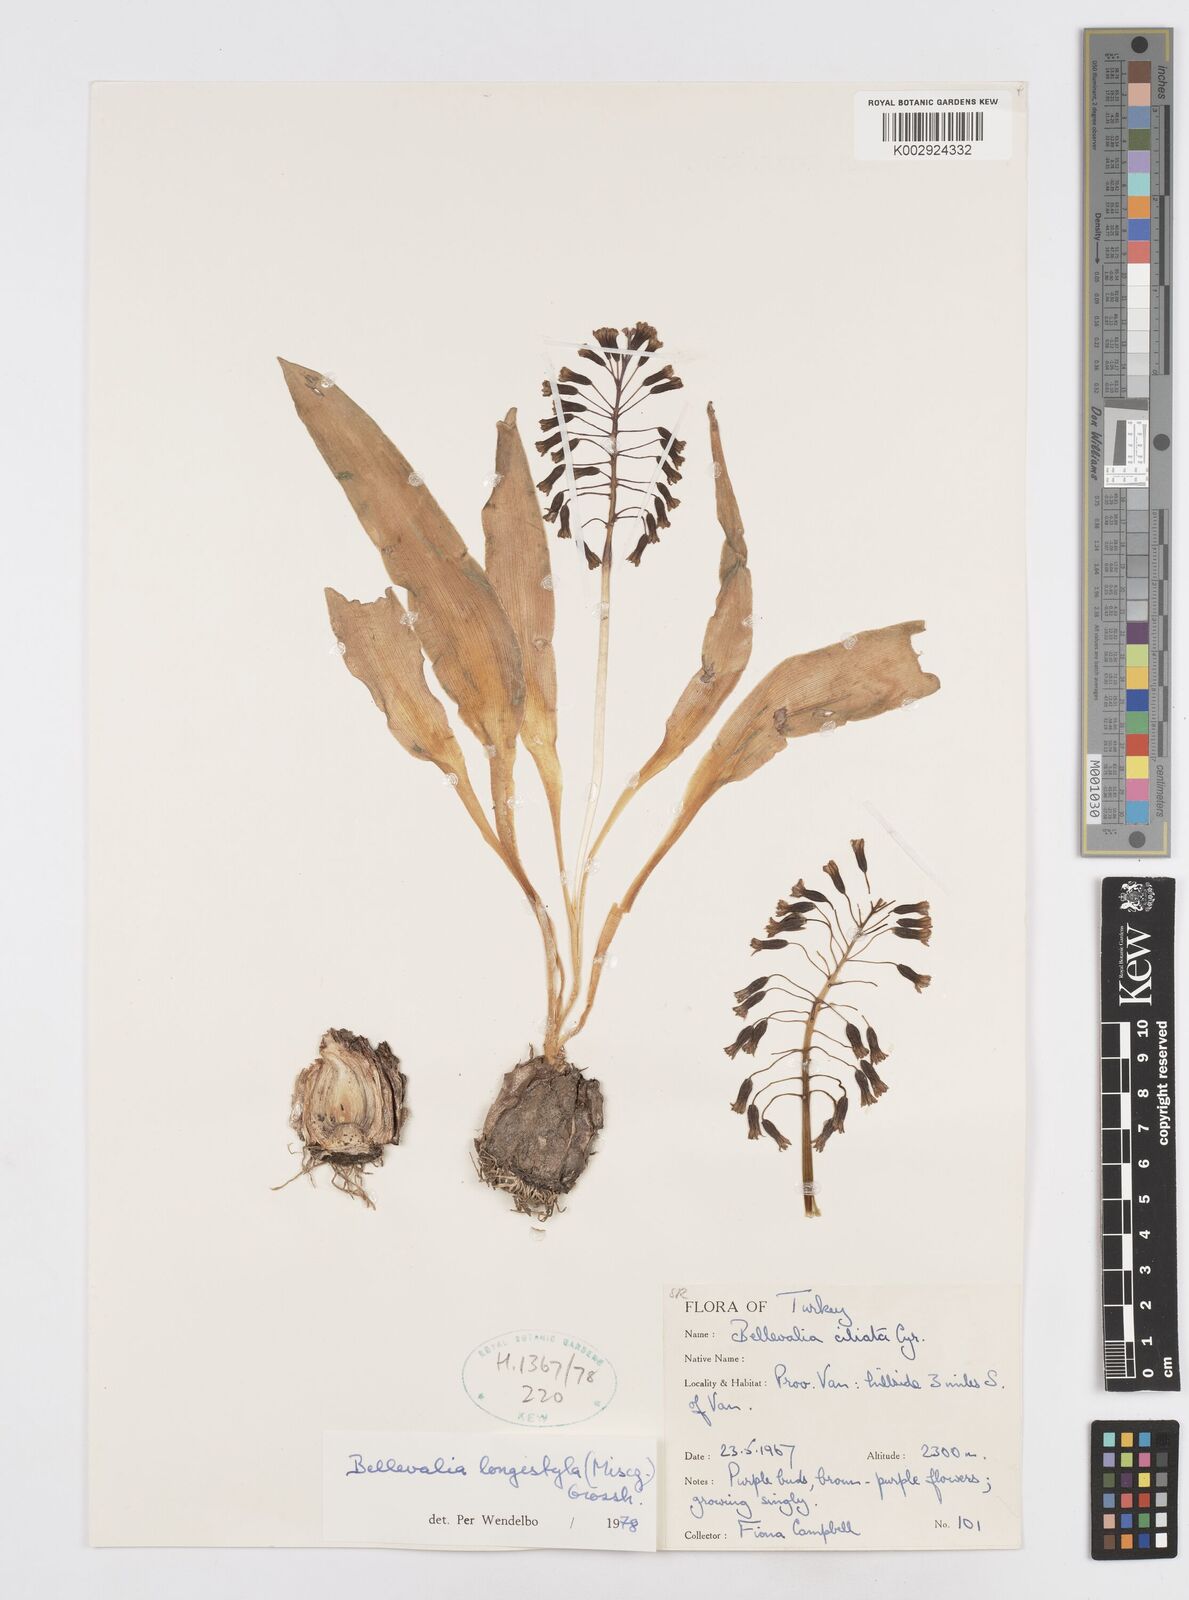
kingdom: Plantae
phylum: Tracheophyta
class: Liliopsida
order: Asparagales
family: Asparagaceae
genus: Bellevalia
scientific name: Bellevalia longistyla
